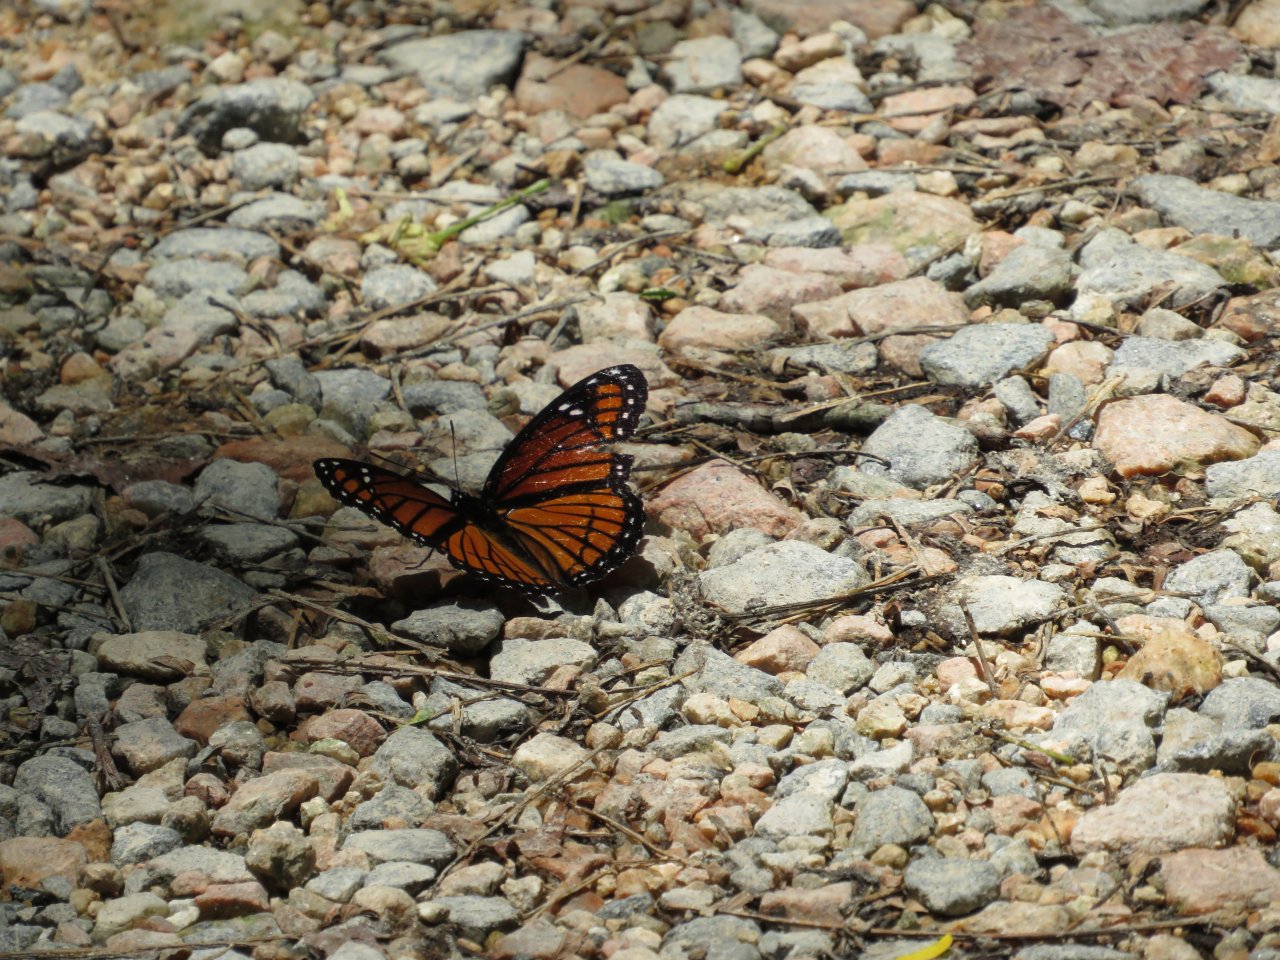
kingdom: Animalia
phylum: Arthropoda
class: Insecta
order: Lepidoptera
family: Nymphalidae
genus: Limenitis
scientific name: Limenitis archippus
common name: Viceroy
